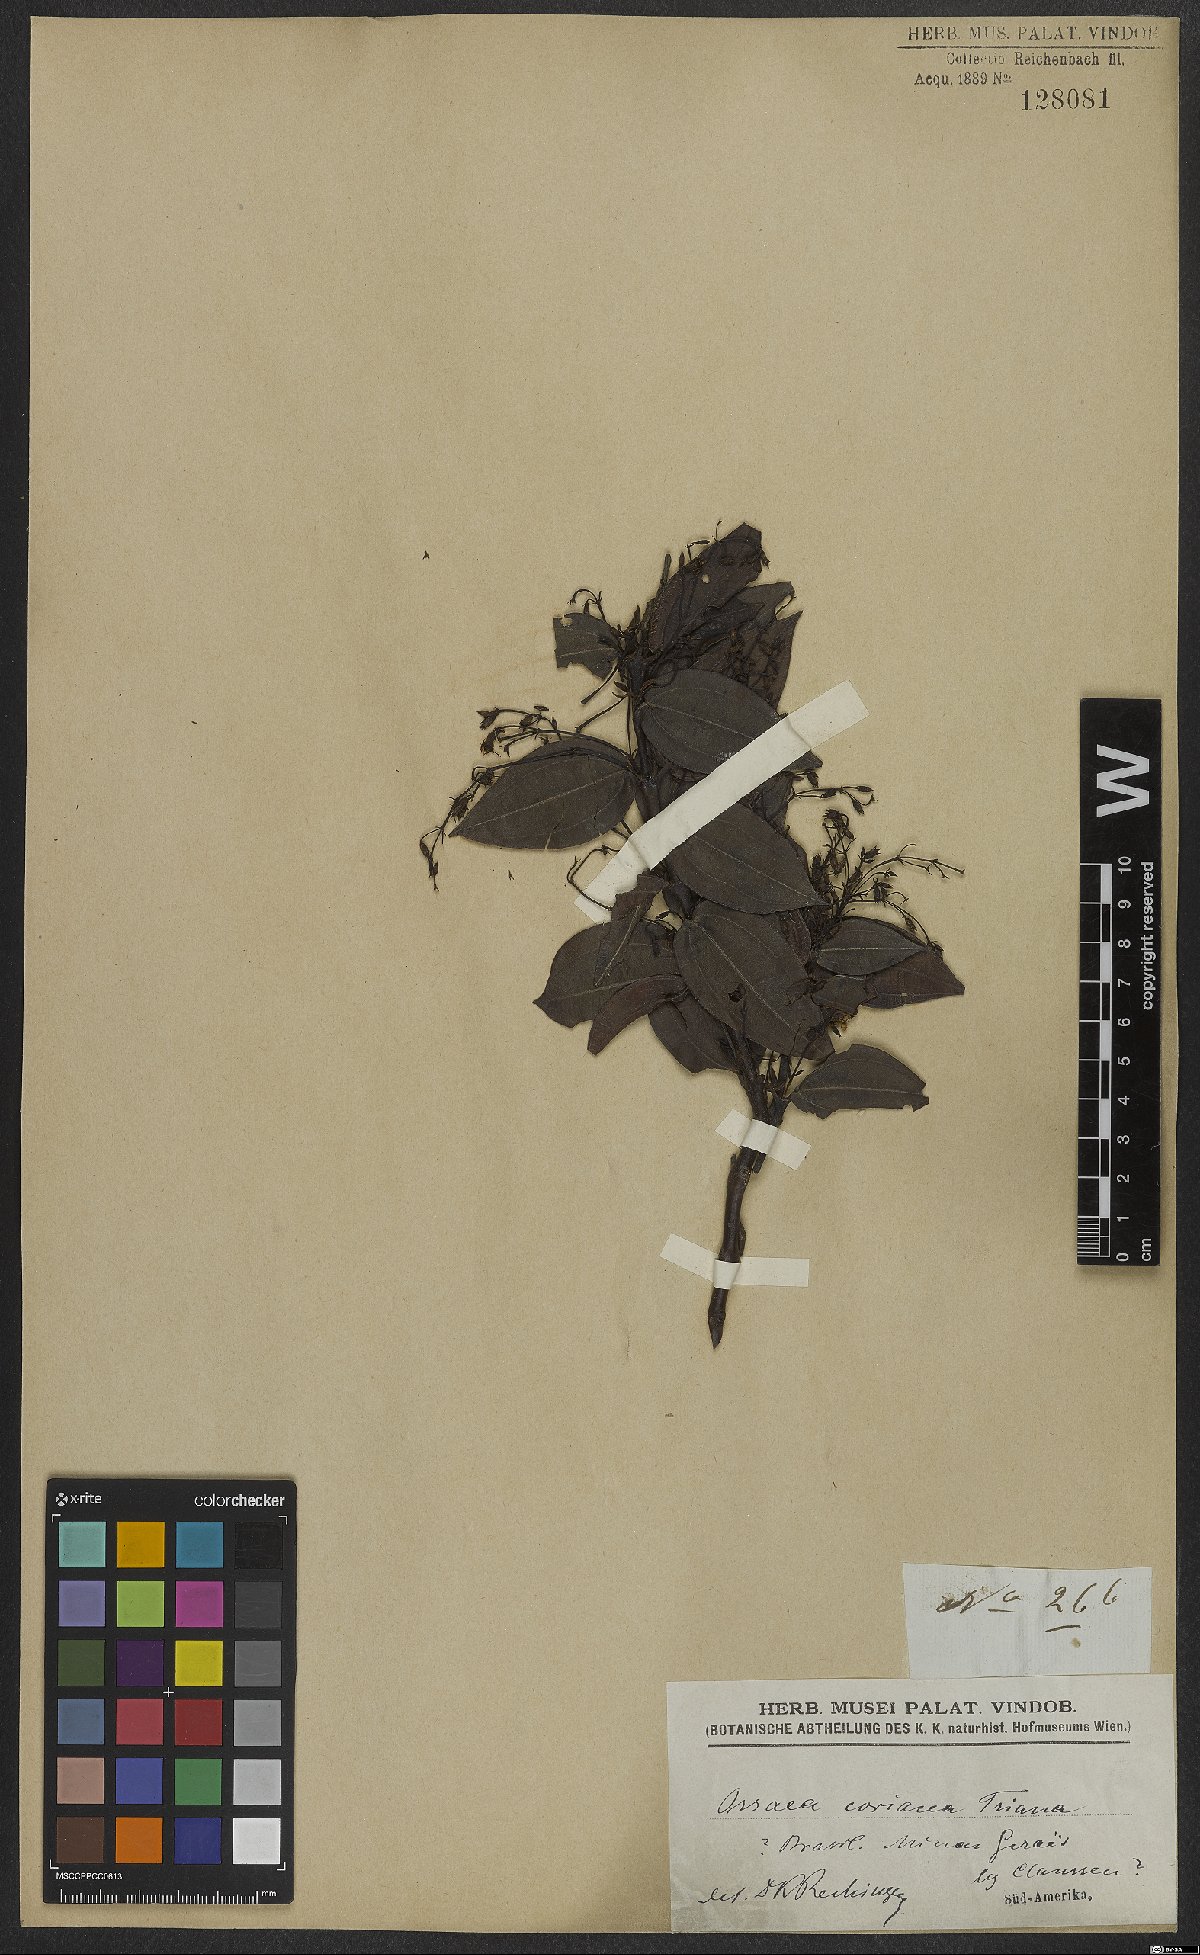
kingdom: Plantae
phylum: Tracheophyta
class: Magnoliopsida
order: Myrtales
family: Melastomataceae
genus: Miconia
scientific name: Miconia leabiscoriacea
